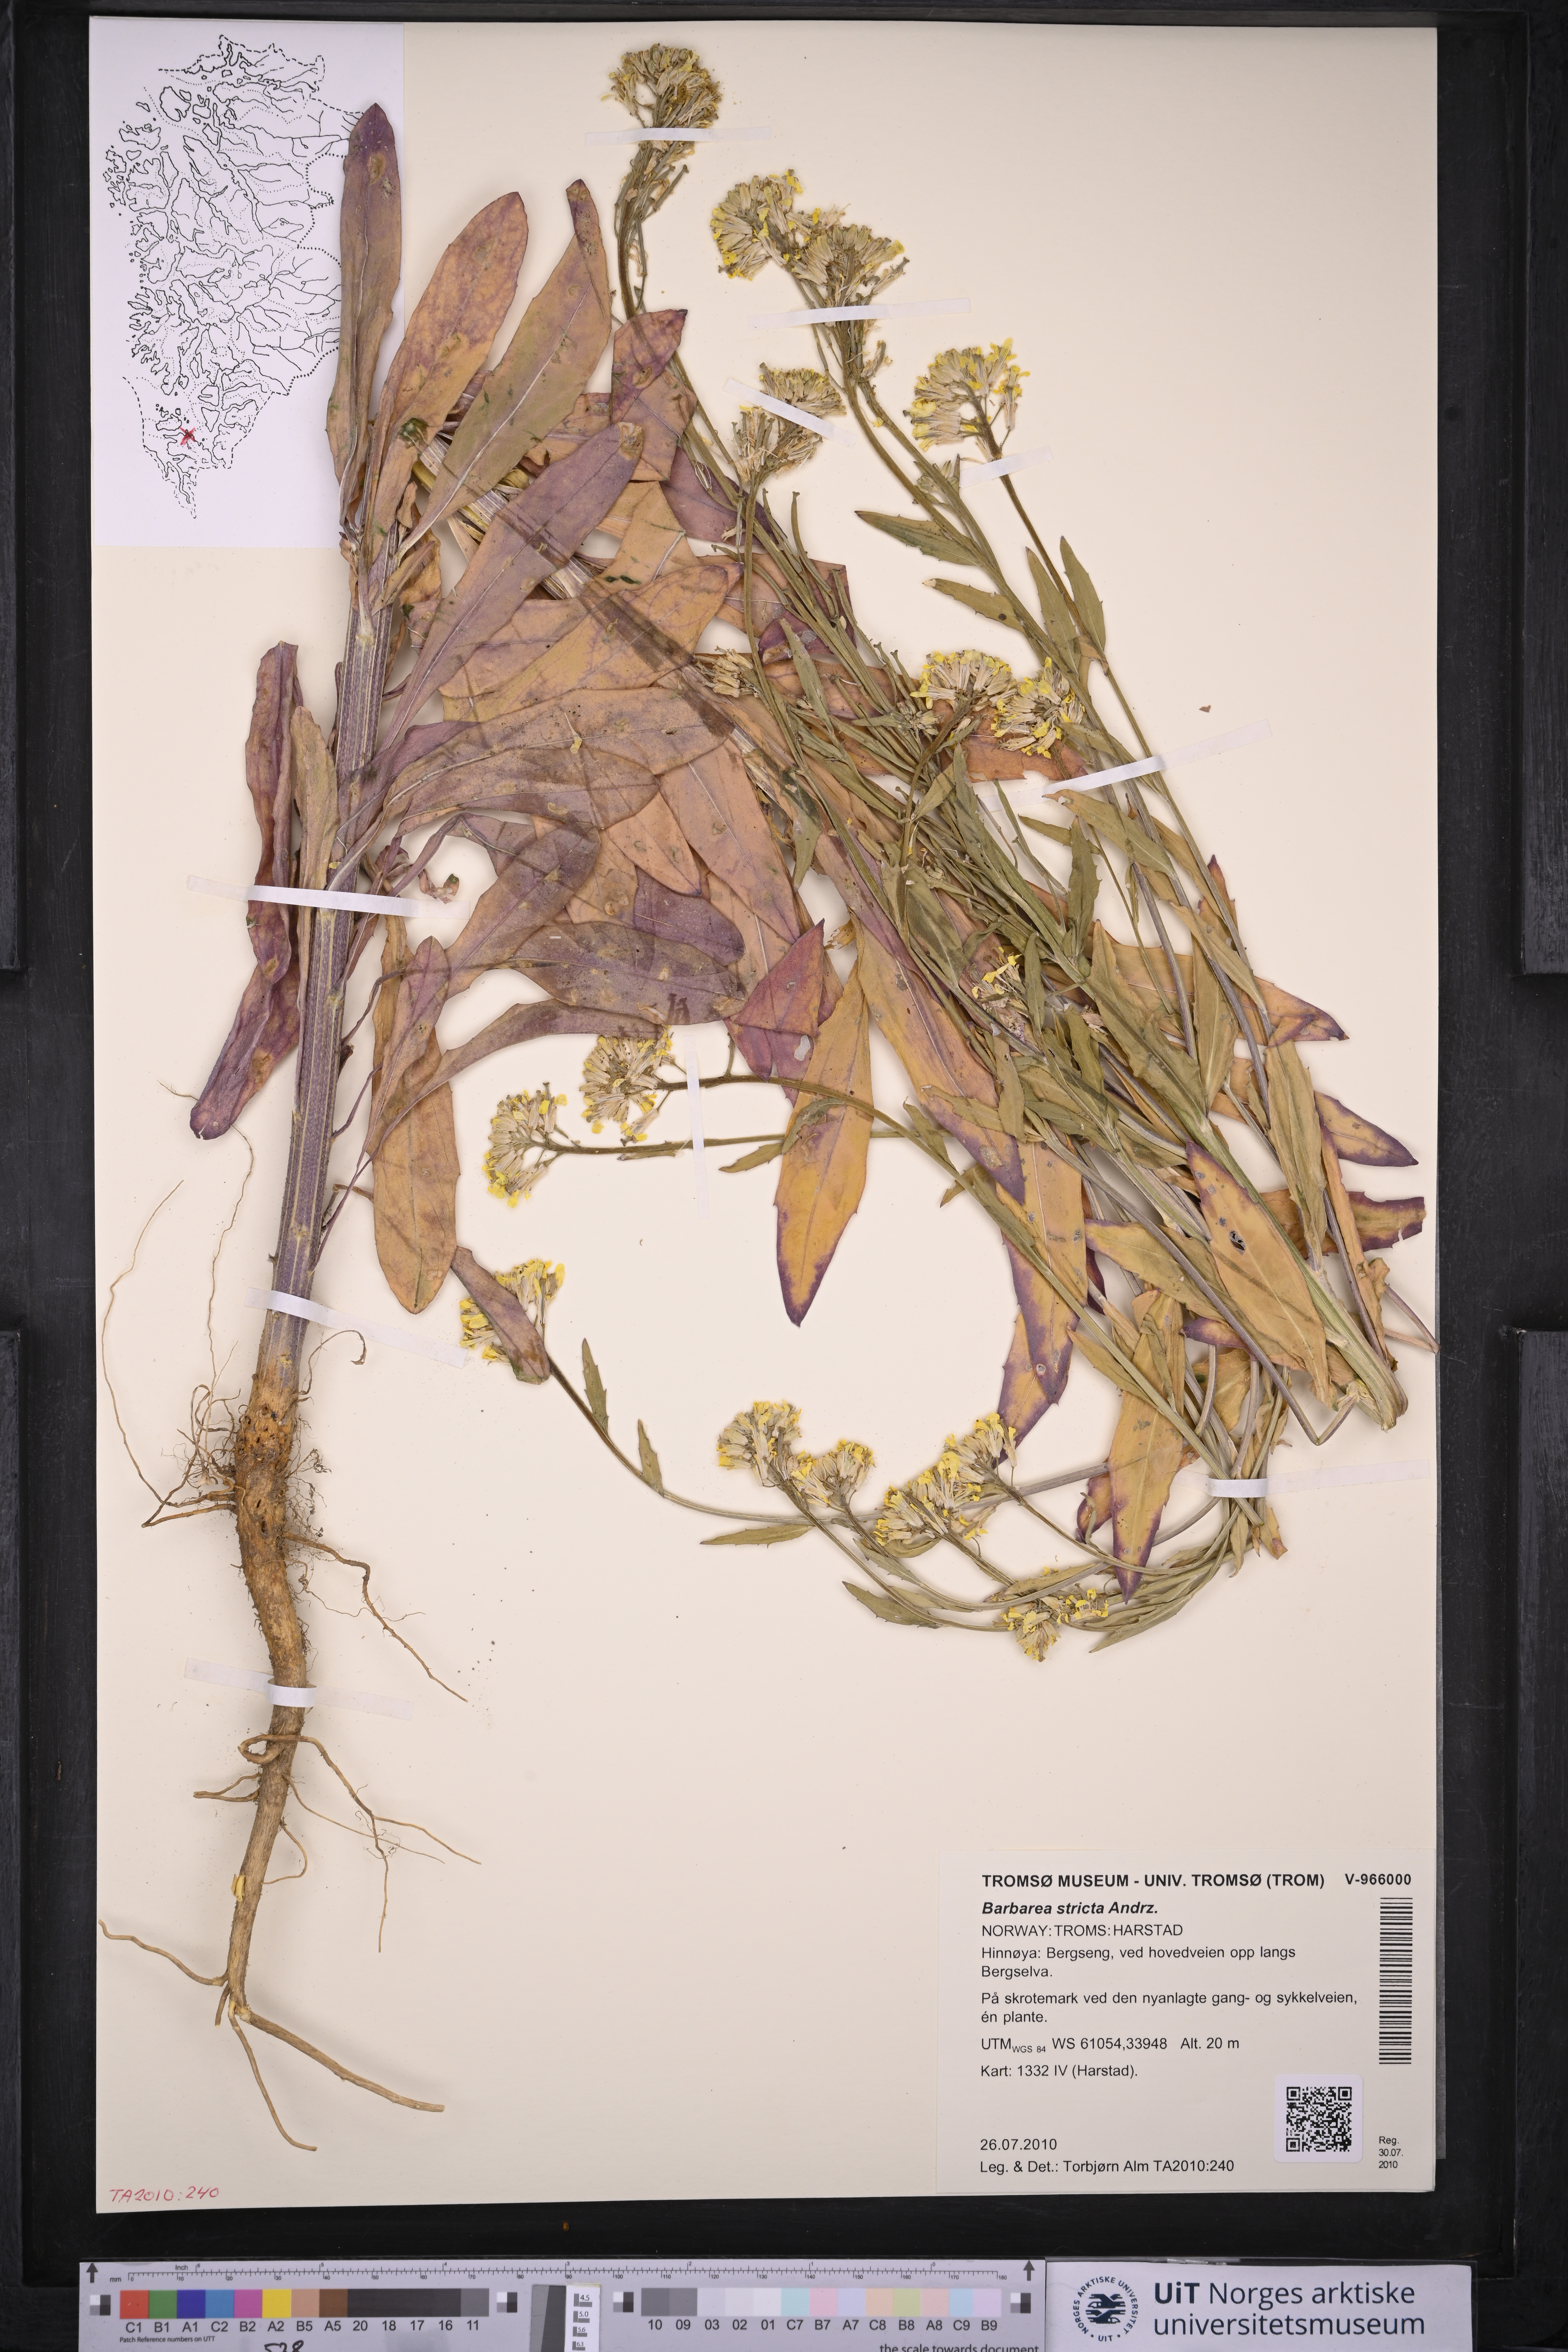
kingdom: Plantae
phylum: Tracheophyta
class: Magnoliopsida
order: Brassicales
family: Brassicaceae
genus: Barbarea
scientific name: Barbarea stricta
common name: Small-flowered winter-cress
